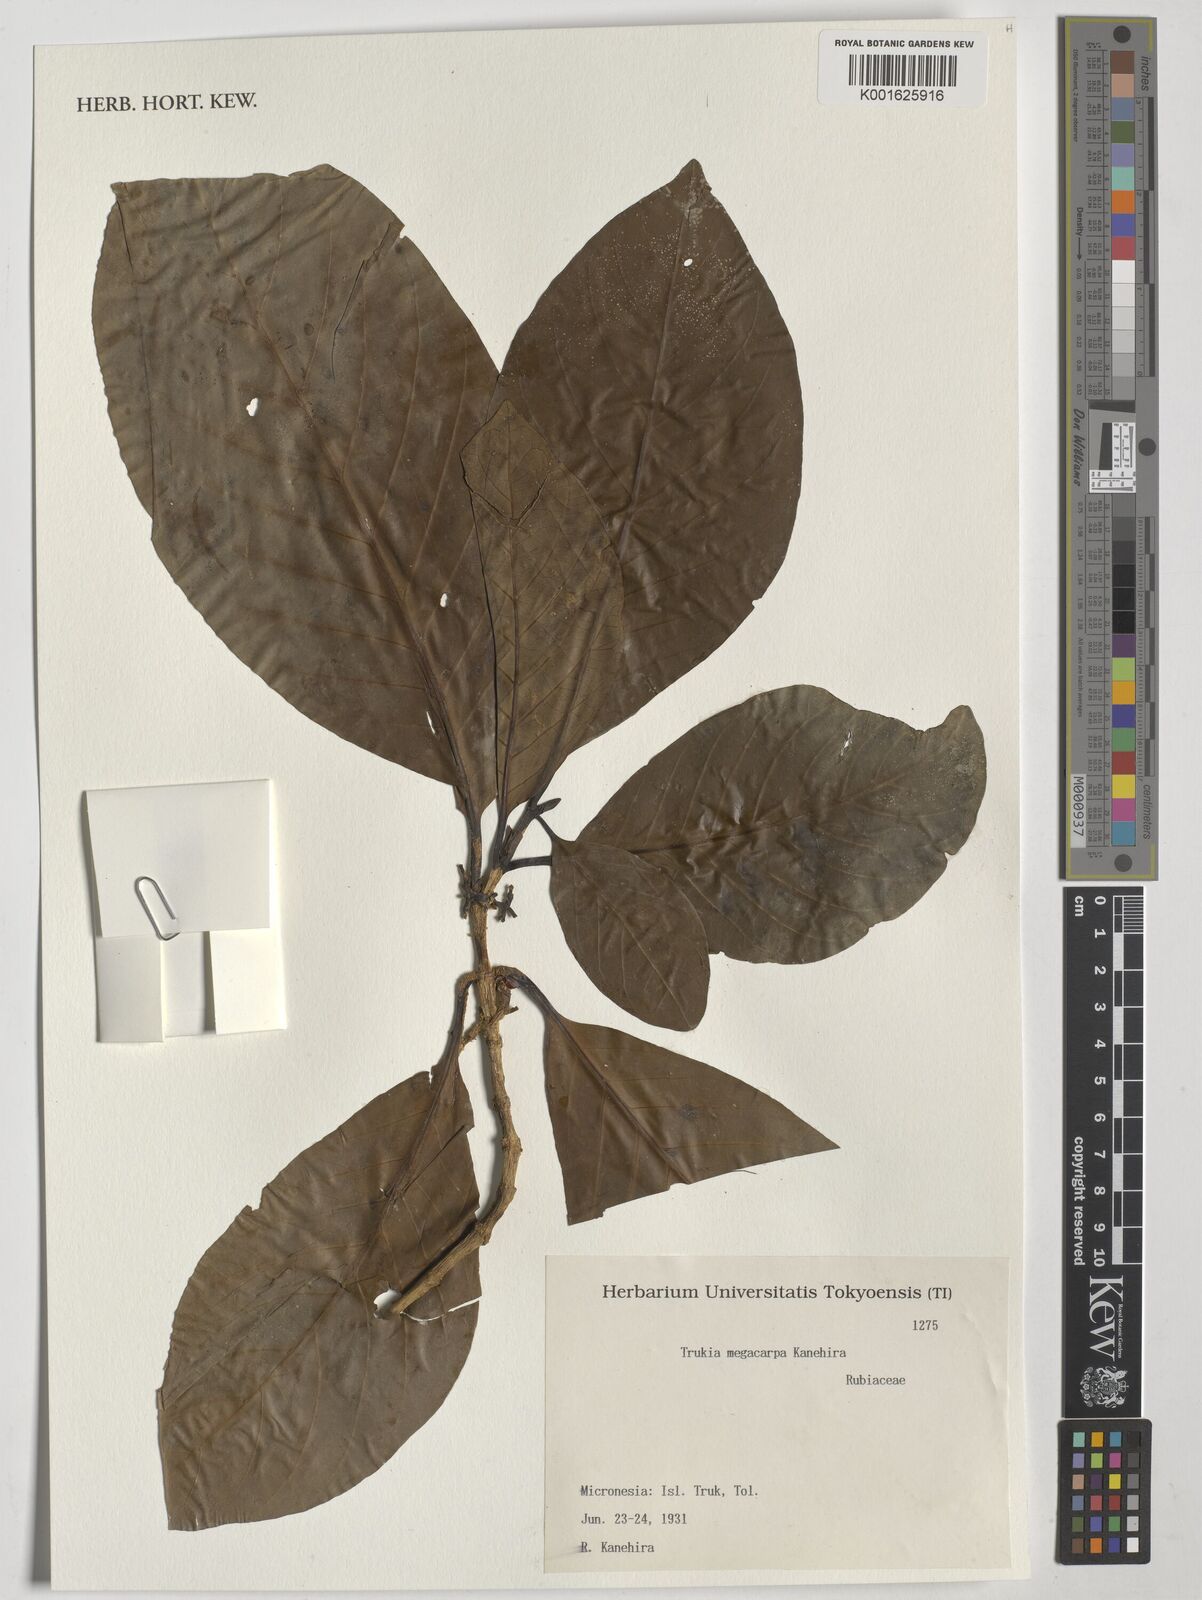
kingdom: Plantae
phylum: Tracheophyta
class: Magnoliopsida
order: Gentianales
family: Rubiaceae
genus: Atractocarpus
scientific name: Atractocarpus carolinensis
